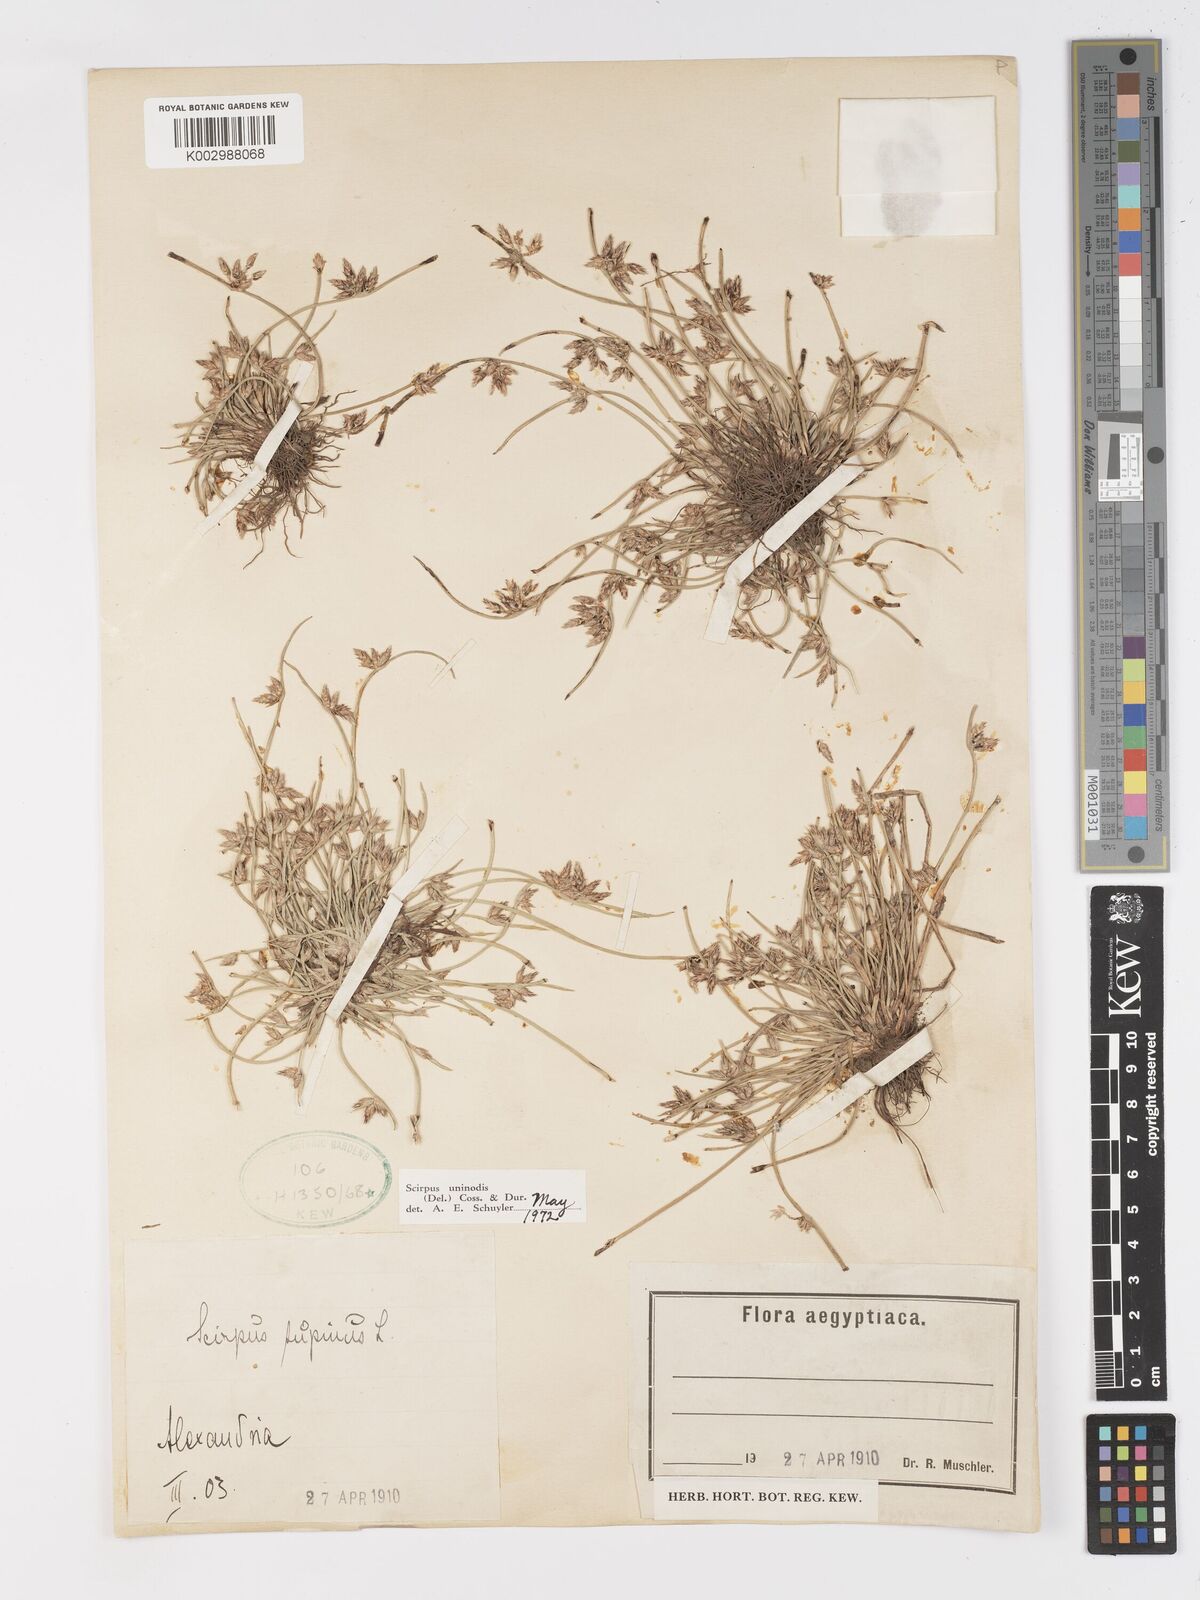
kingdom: Plantae
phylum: Tracheophyta
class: Liliopsida
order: Poales
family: Cyperaceae
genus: Schoenoplectus
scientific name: Schoenoplectus
